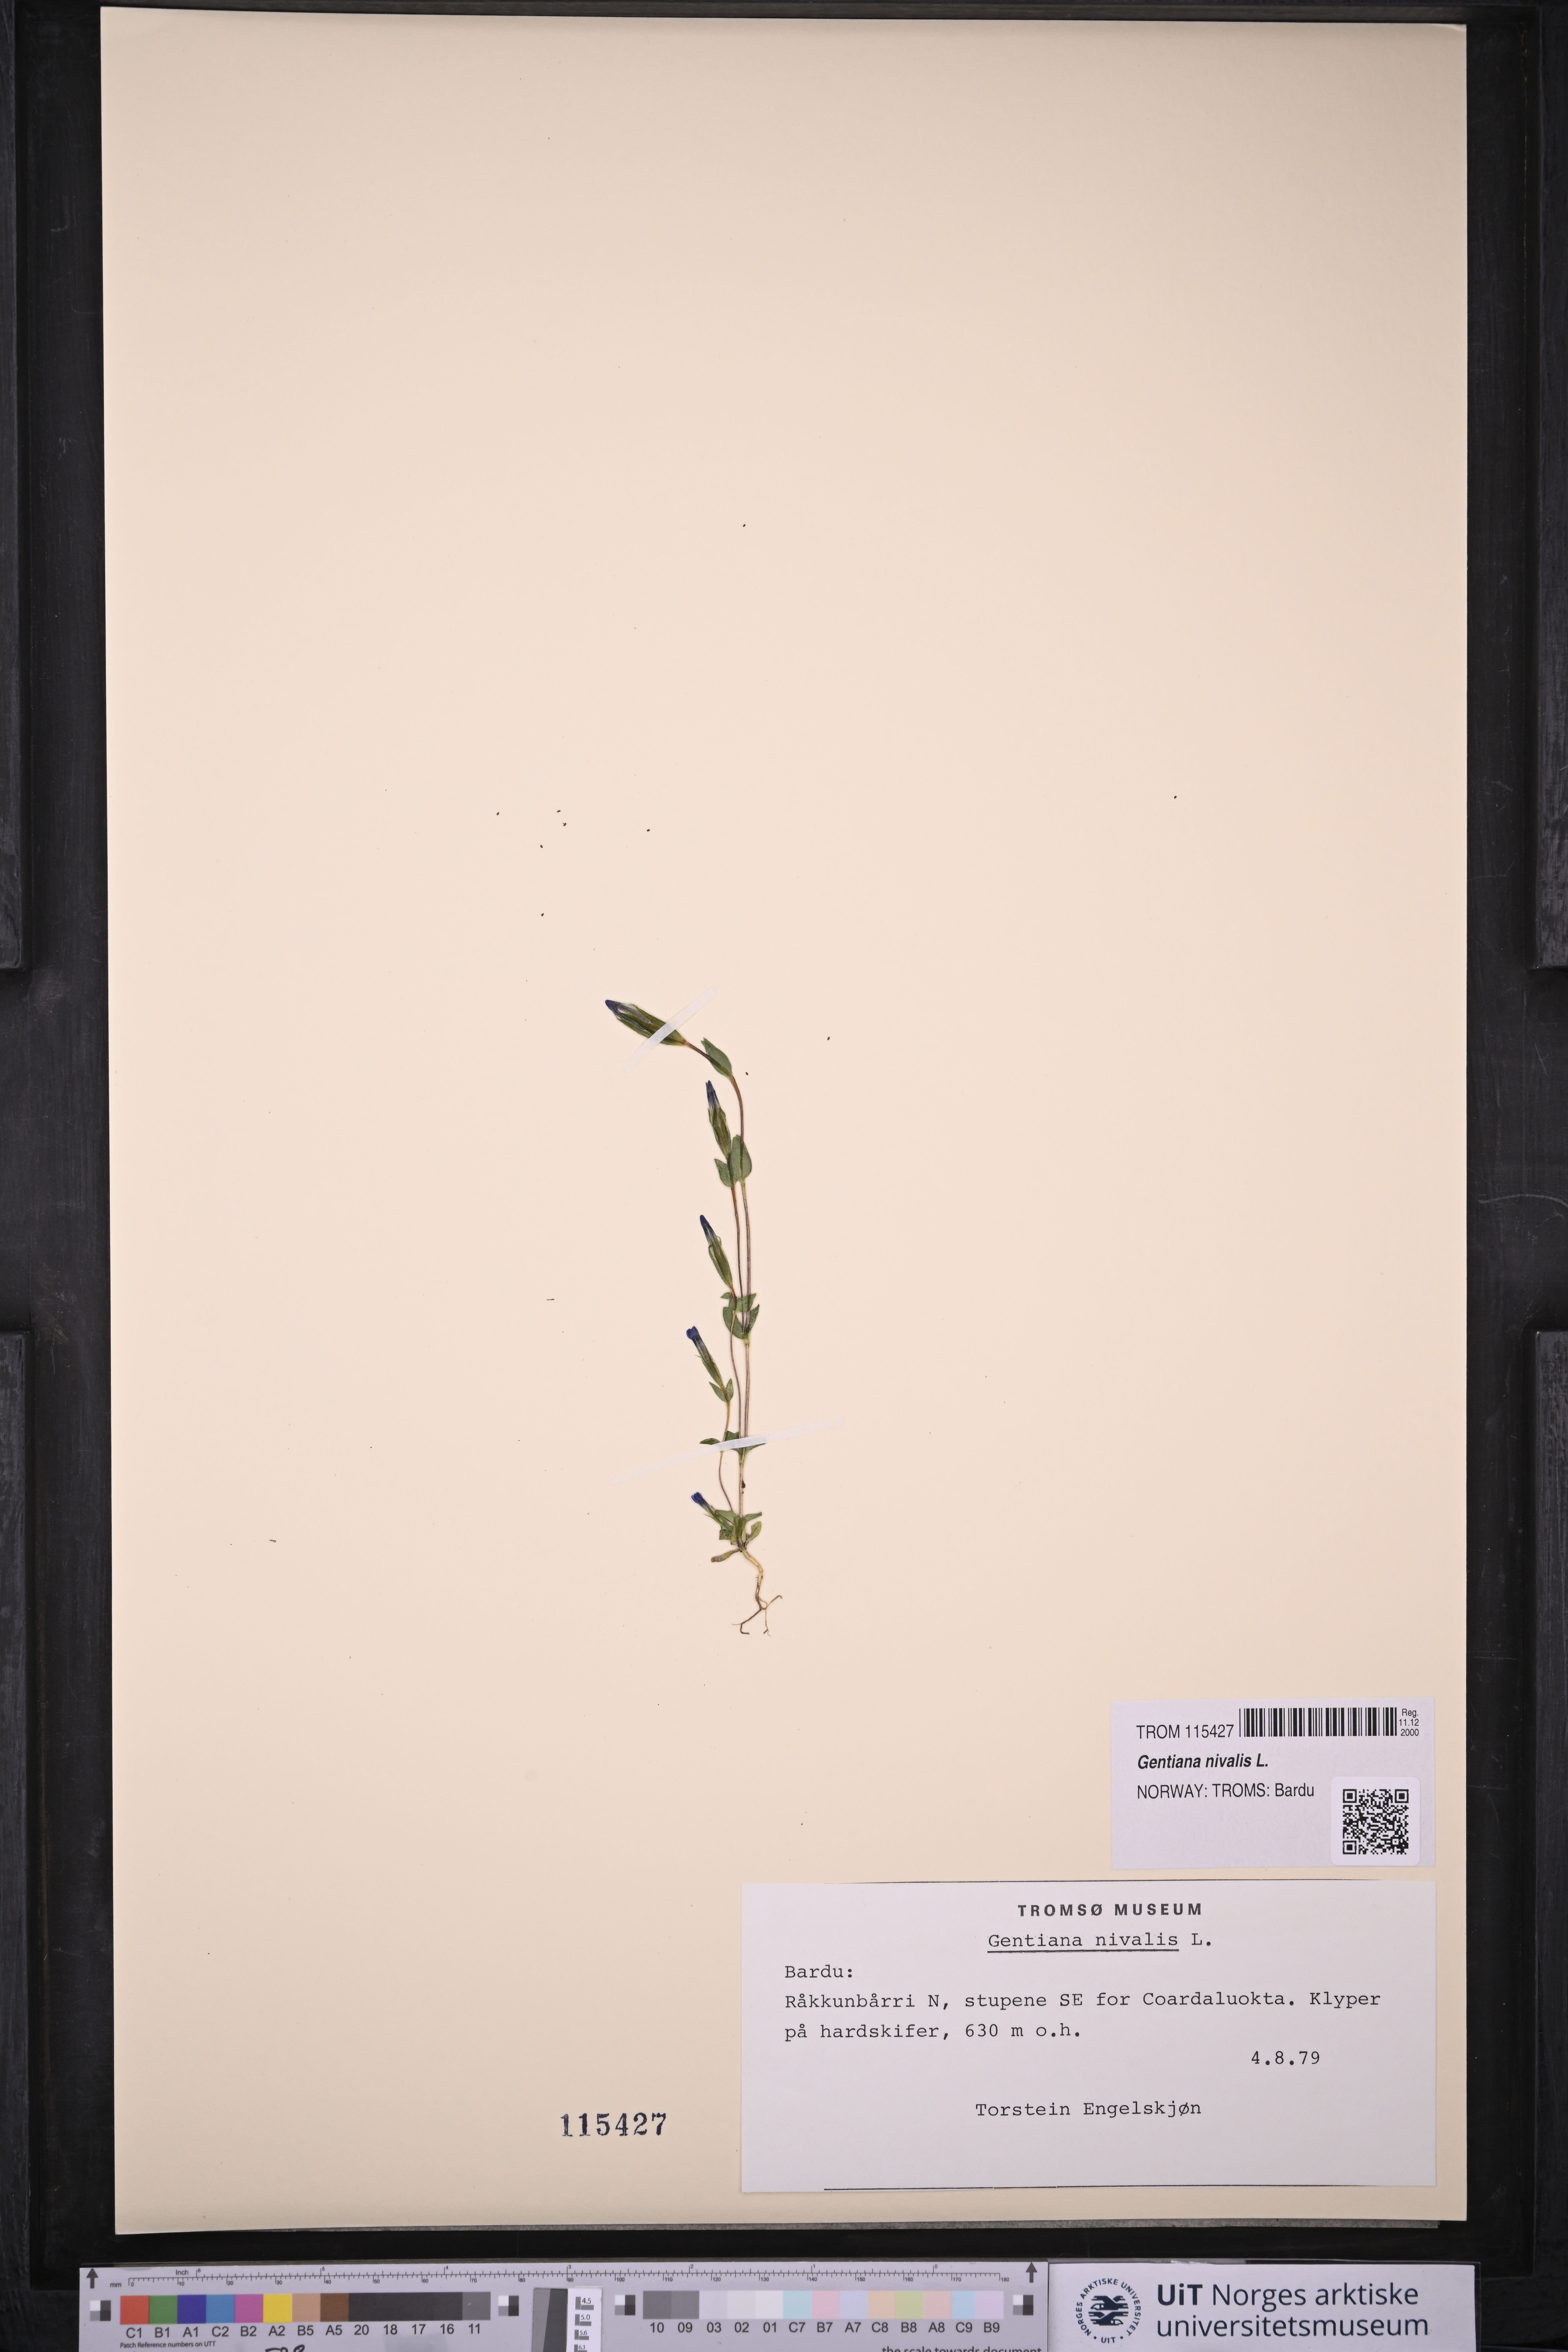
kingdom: Plantae
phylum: Tracheophyta
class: Magnoliopsida
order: Gentianales
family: Gentianaceae
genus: Gentiana
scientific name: Gentiana nivalis
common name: Alpine gentian
